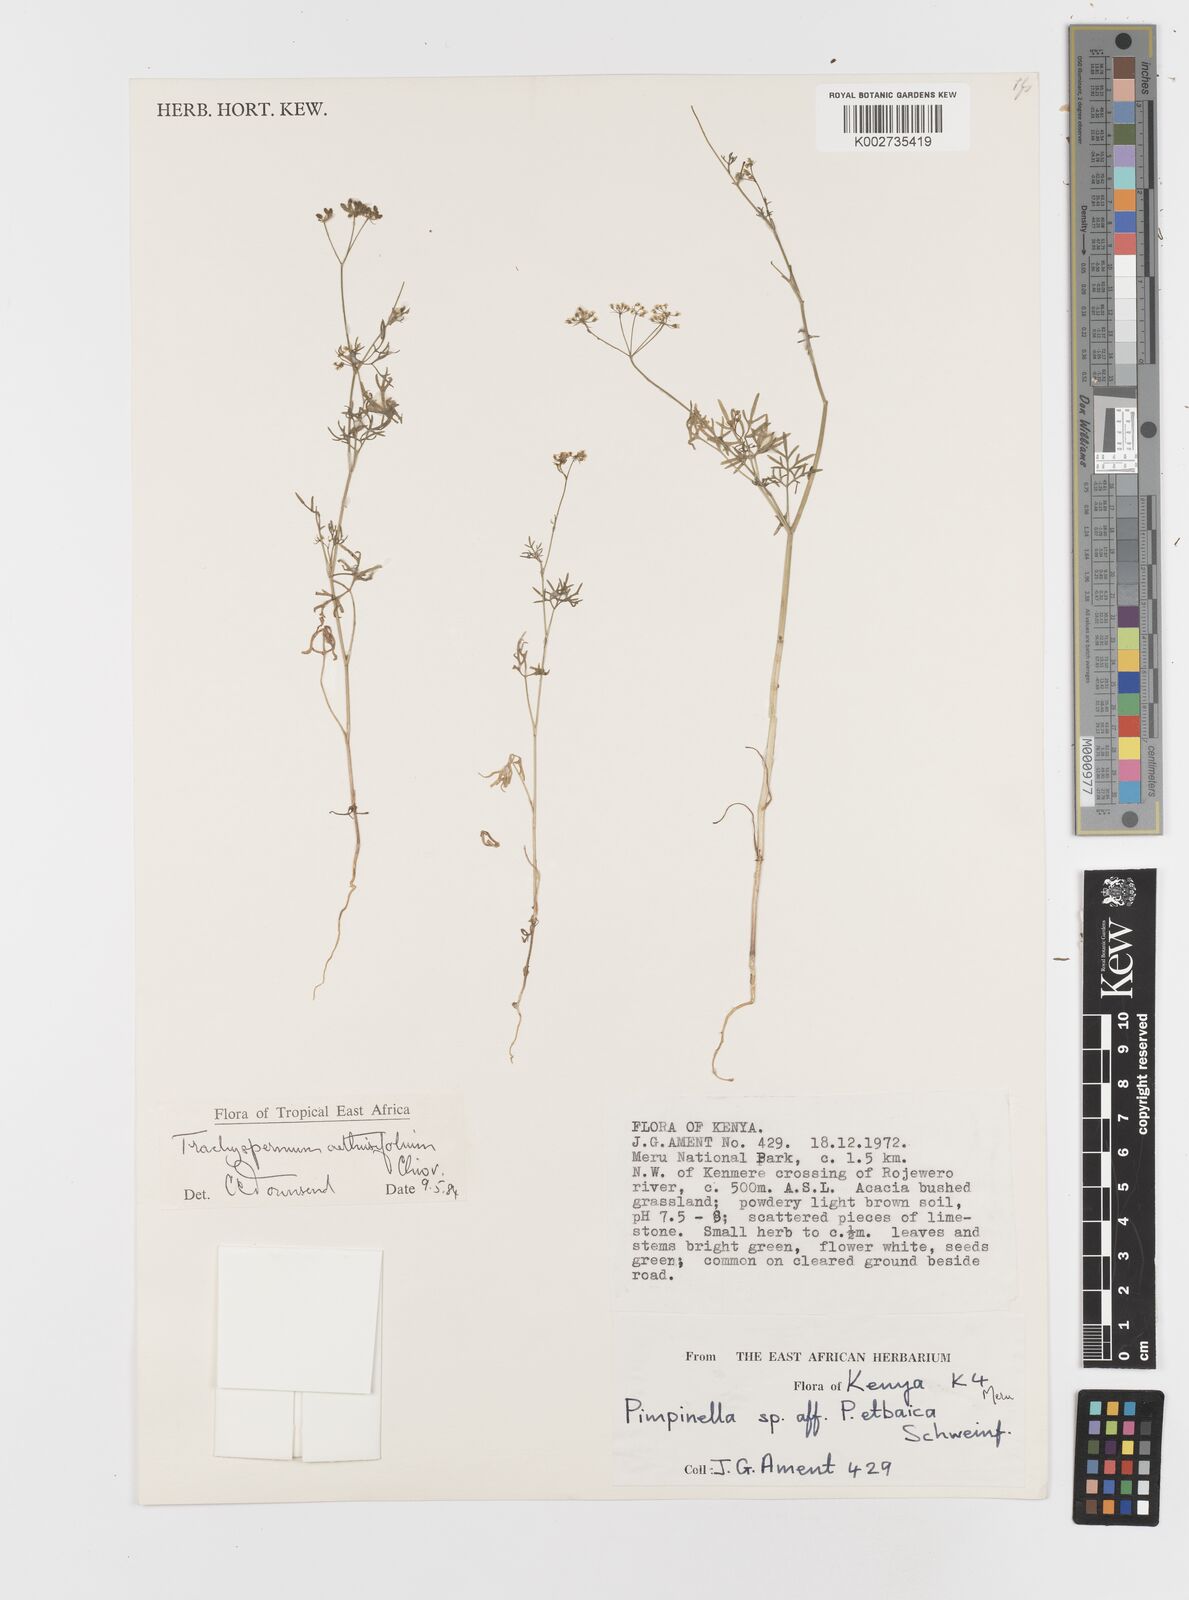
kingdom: Plantae
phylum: Tracheophyta
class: Magnoliopsida
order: Apiales
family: Apiaceae
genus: Trachyspermum
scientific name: Trachyspermum pimpinelloides
